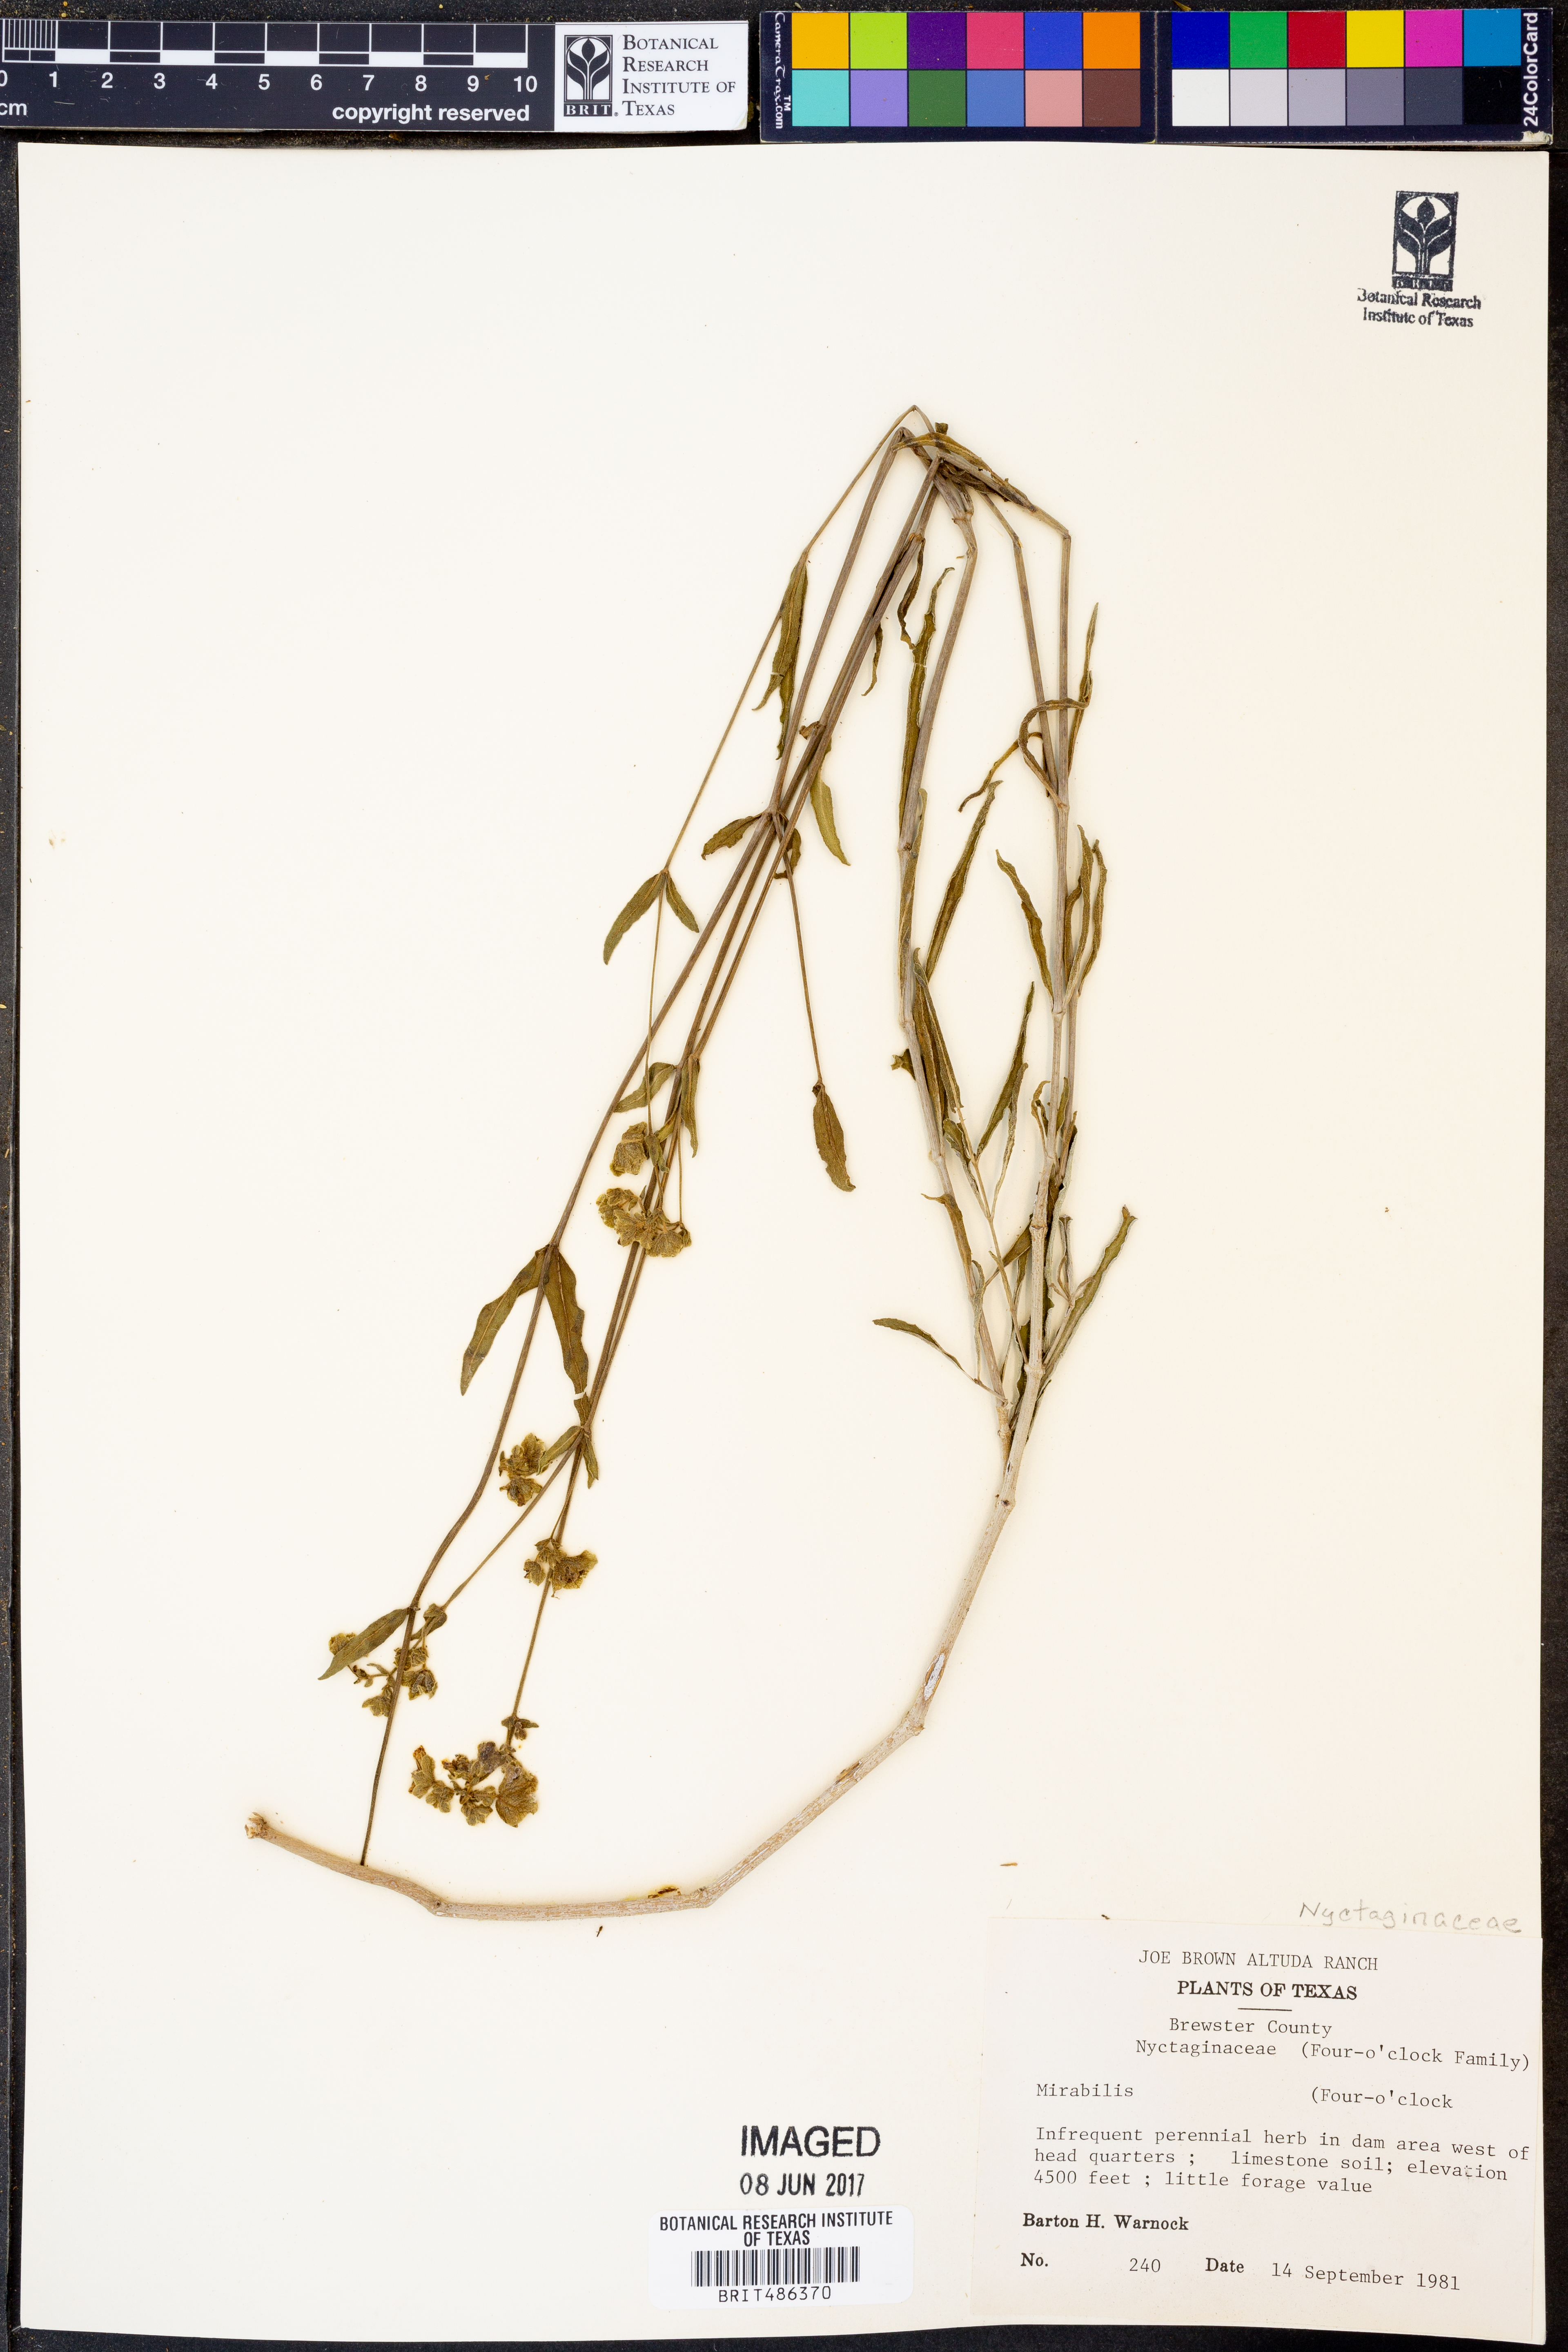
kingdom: Plantae
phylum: Tracheophyta
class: Magnoliopsida
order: Caryophyllales
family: Nyctaginaceae
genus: Mirabilis
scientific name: Mirabilis
